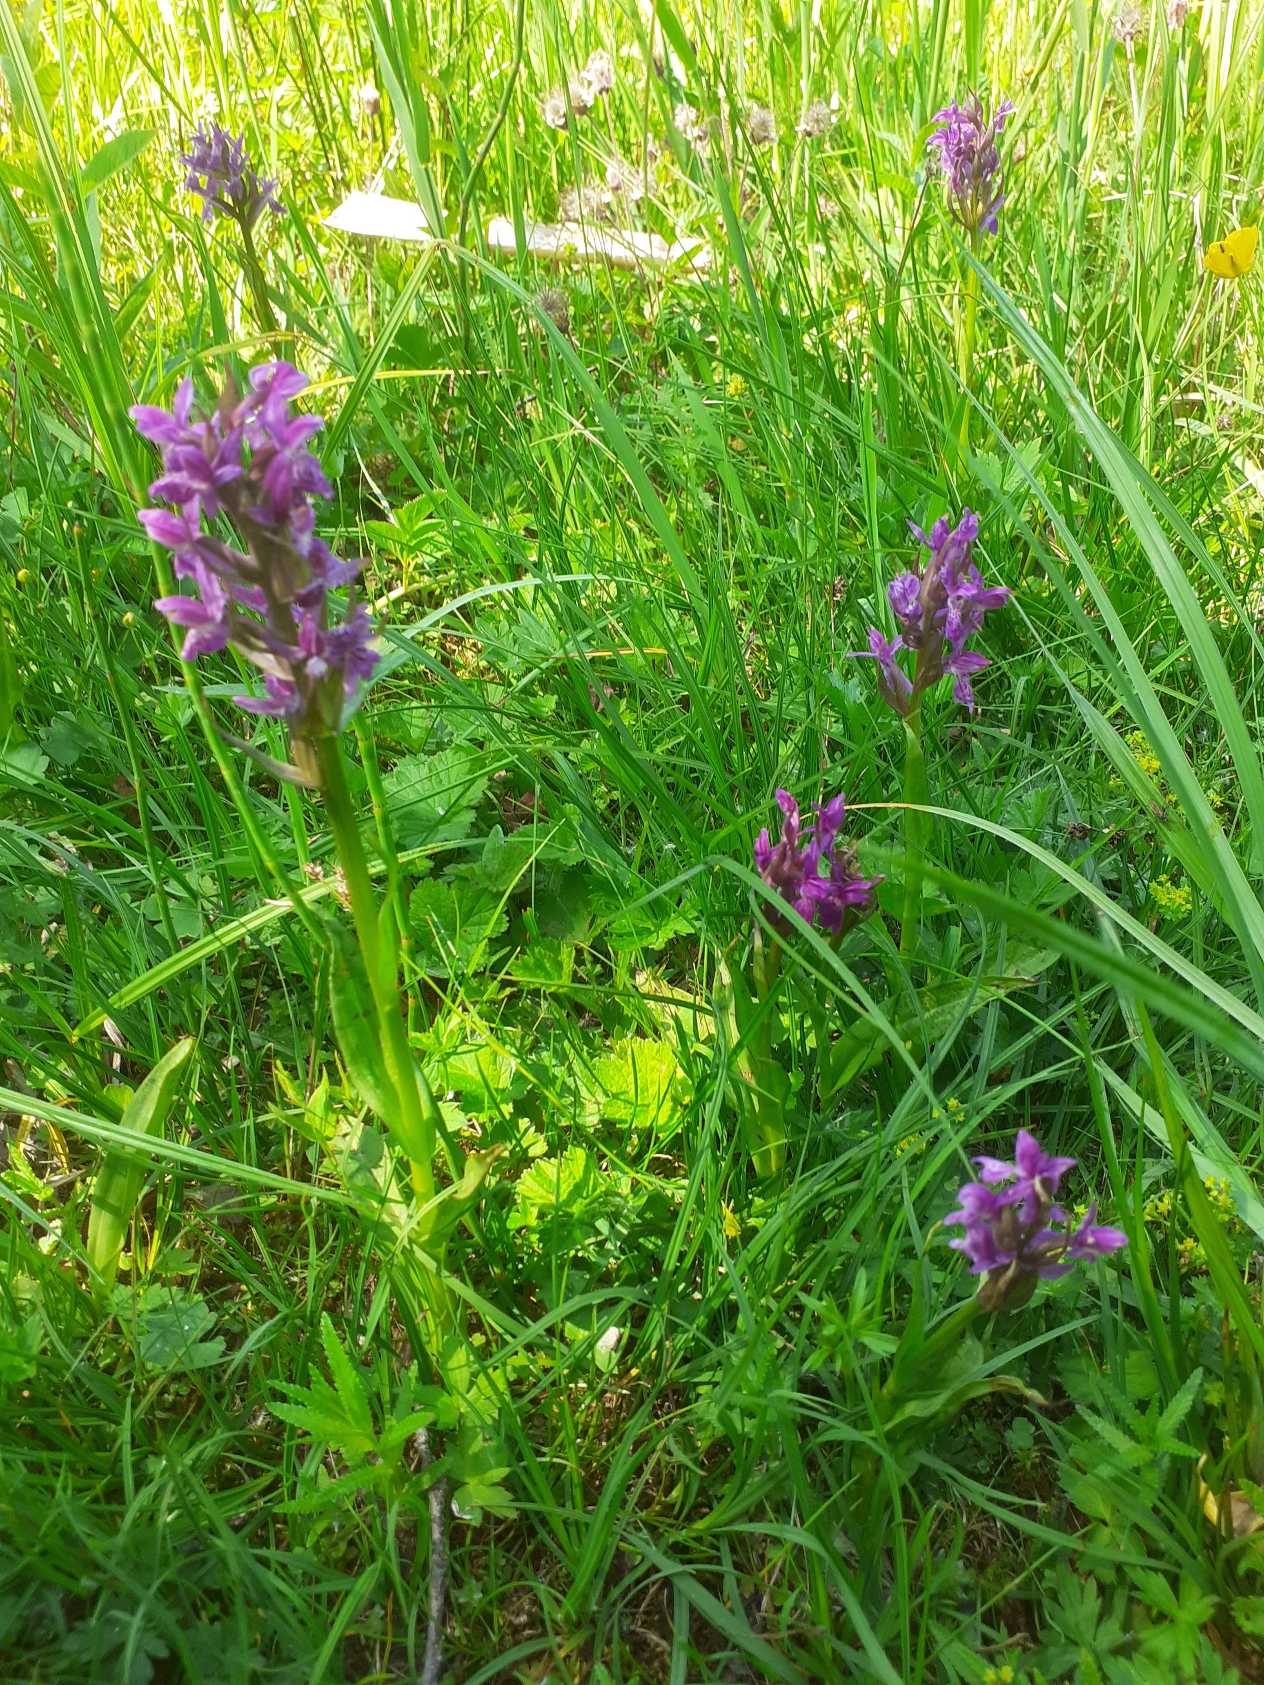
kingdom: Plantae
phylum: Tracheophyta
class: Liliopsida
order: Asparagales
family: Orchidaceae
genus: Dactylorhiza
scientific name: Dactylorhiza majalis
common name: Maj-gøgeurt
